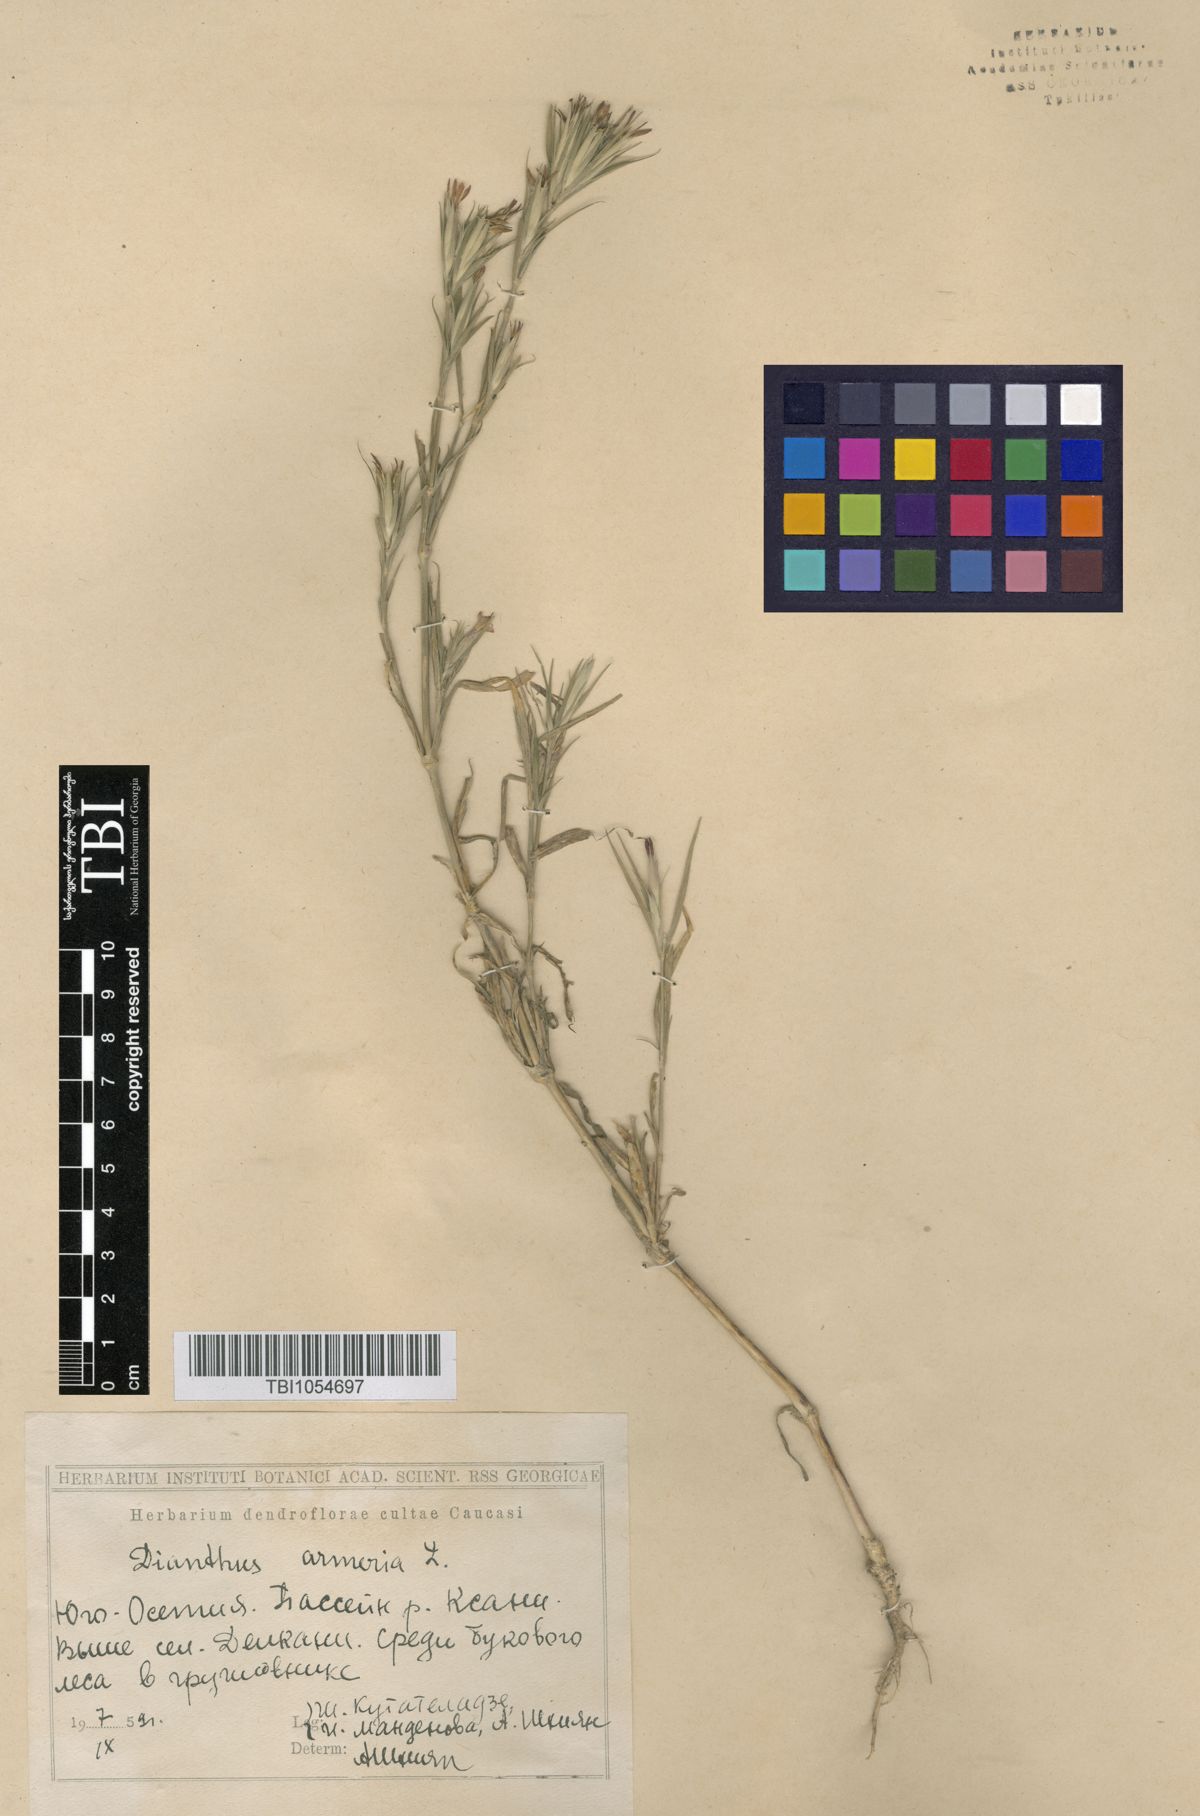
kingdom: Plantae
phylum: Tracheophyta
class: Magnoliopsida
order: Caryophyllales
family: Caryophyllaceae
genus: Dianthus
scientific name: Dianthus armeria
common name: Deptford pink
